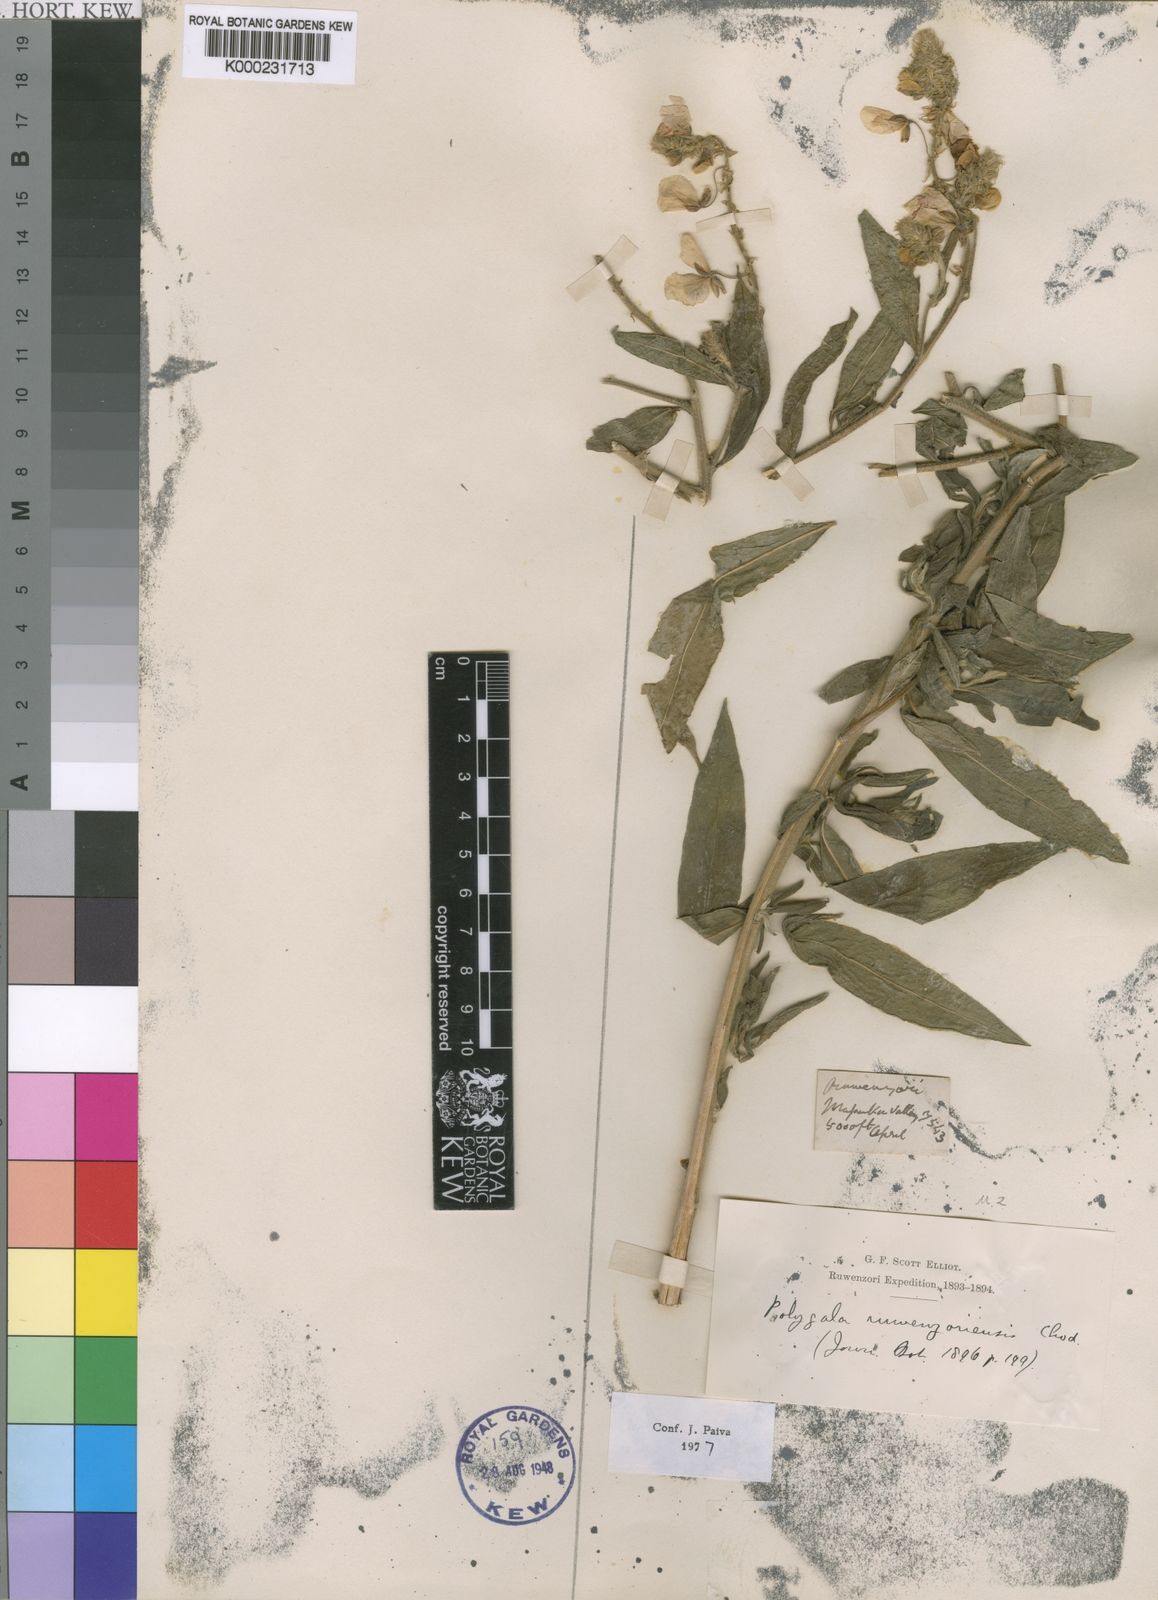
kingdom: Plantae
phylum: Tracheophyta
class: Magnoliopsida
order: Fabales
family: Polygalaceae
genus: Polygala
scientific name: Polygala ruwenzoriensis
